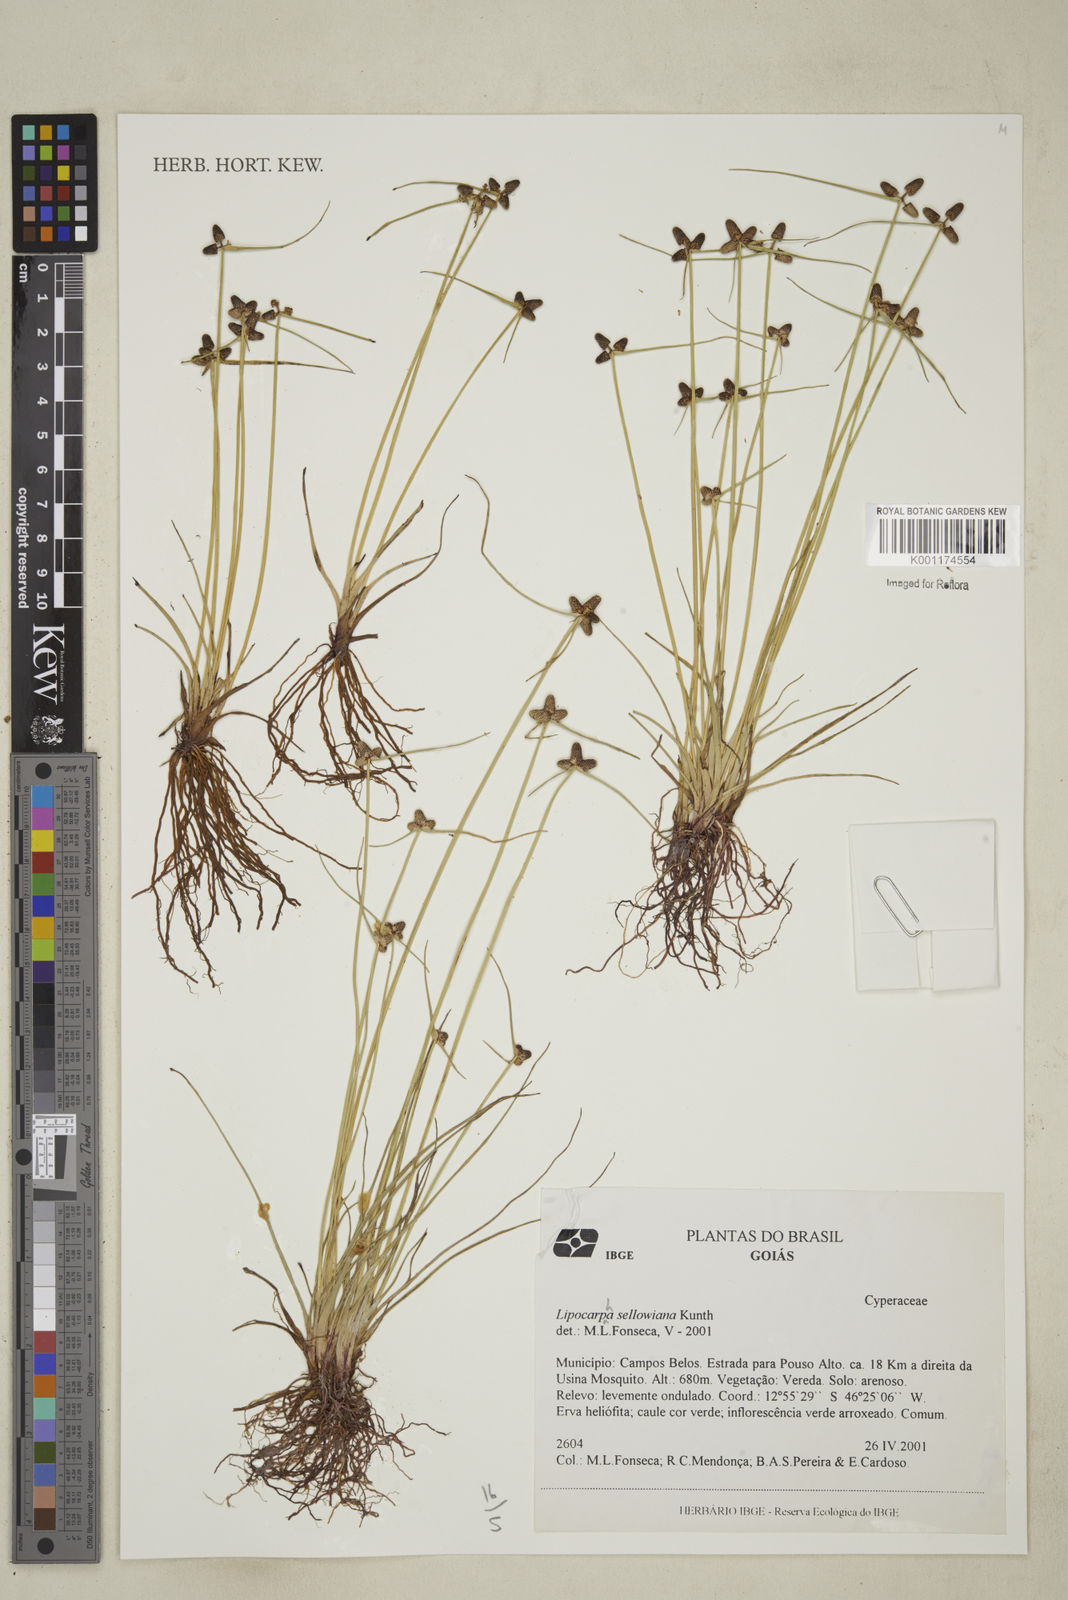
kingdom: Plantae
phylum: Tracheophyta
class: Liliopsida
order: Poales
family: Cyperaceae
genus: Cyperus
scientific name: Cyperus digitatus
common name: Finger flatsedge
